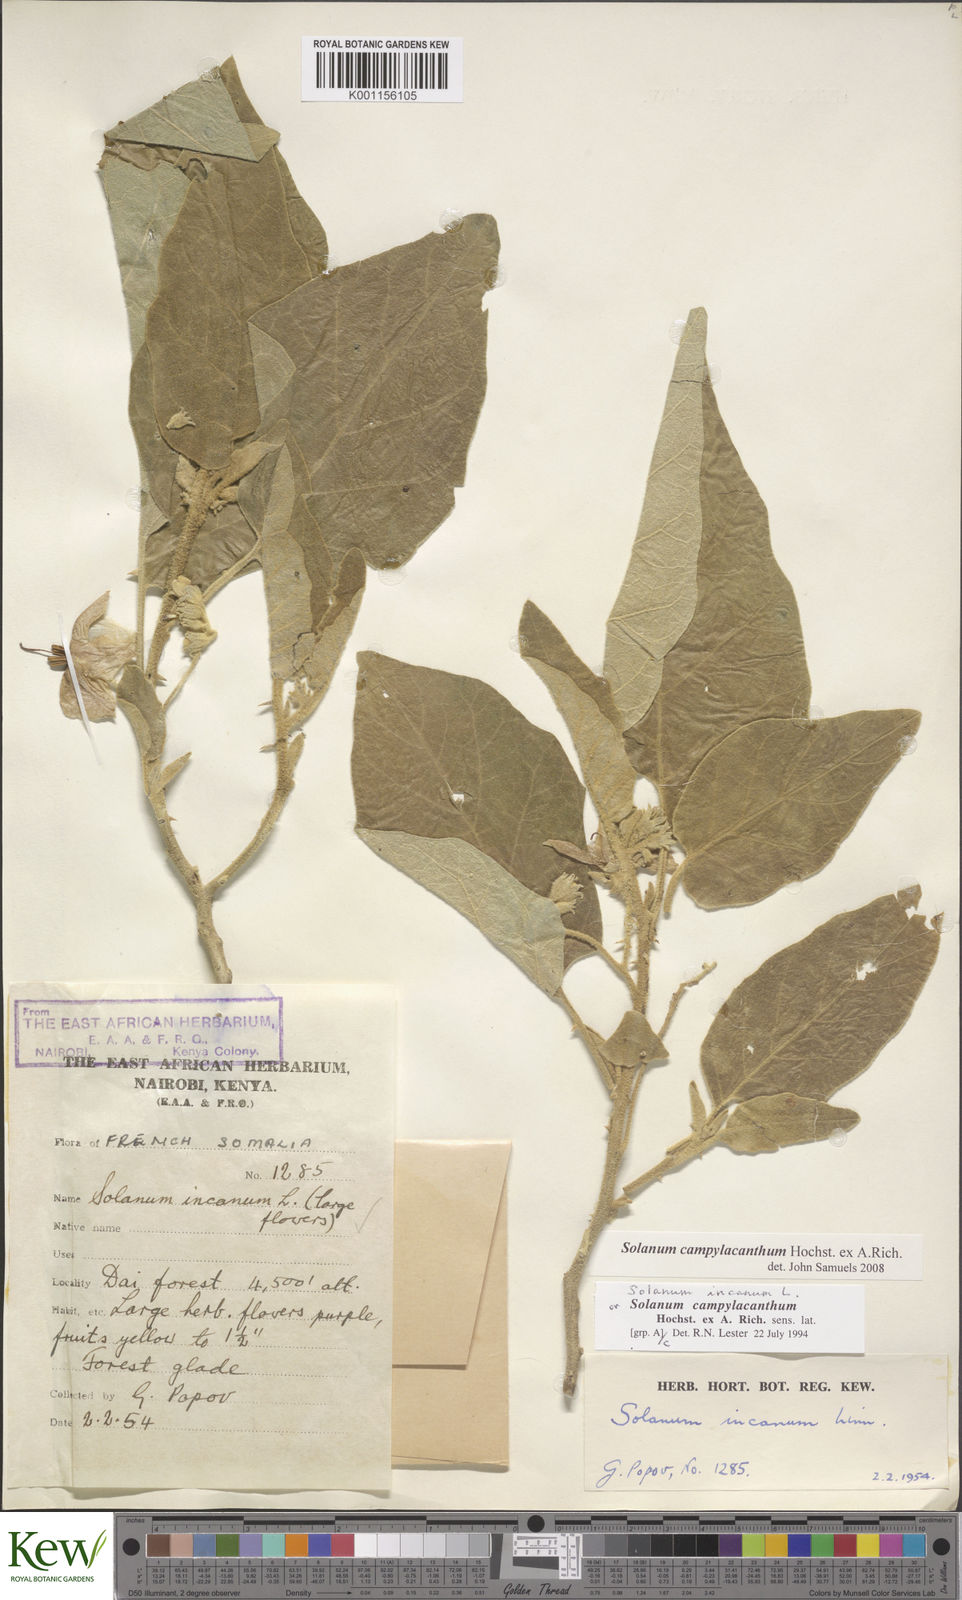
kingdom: Plantae
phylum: Tracheophyta
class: Magnoliopsida
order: Solanales
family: Solanaceae
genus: Solanum
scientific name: Solanum campylacanthum
